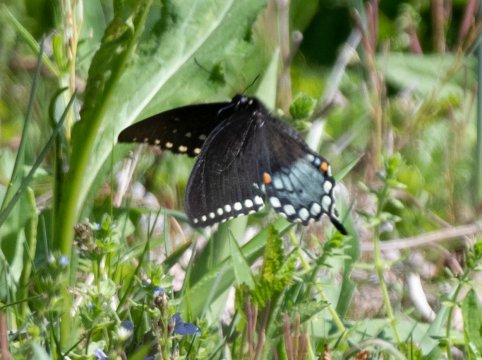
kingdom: Animalia
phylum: Arthropoda
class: Insecta
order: Lepidoptera
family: Papilionidae
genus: Pterourus
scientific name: Pterourus troilus
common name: Spicebush Swallowtail
